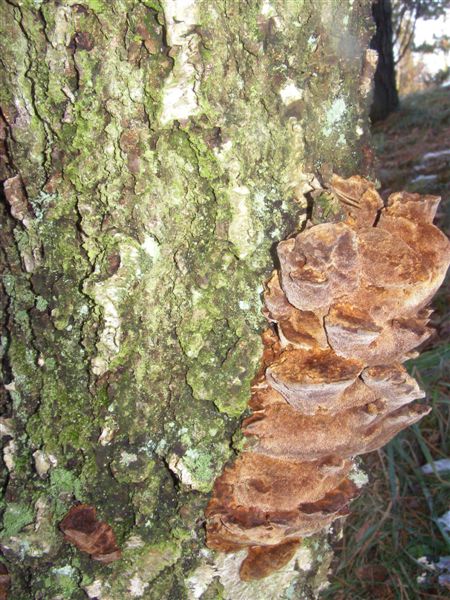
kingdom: Fungi
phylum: Basidiomycota
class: Agaricomycetes
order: Hymenochaetales
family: Hymenochaetaceae
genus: Xanthoporia
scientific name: Xanthoporia radiata
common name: elle-spejlporesvamp
